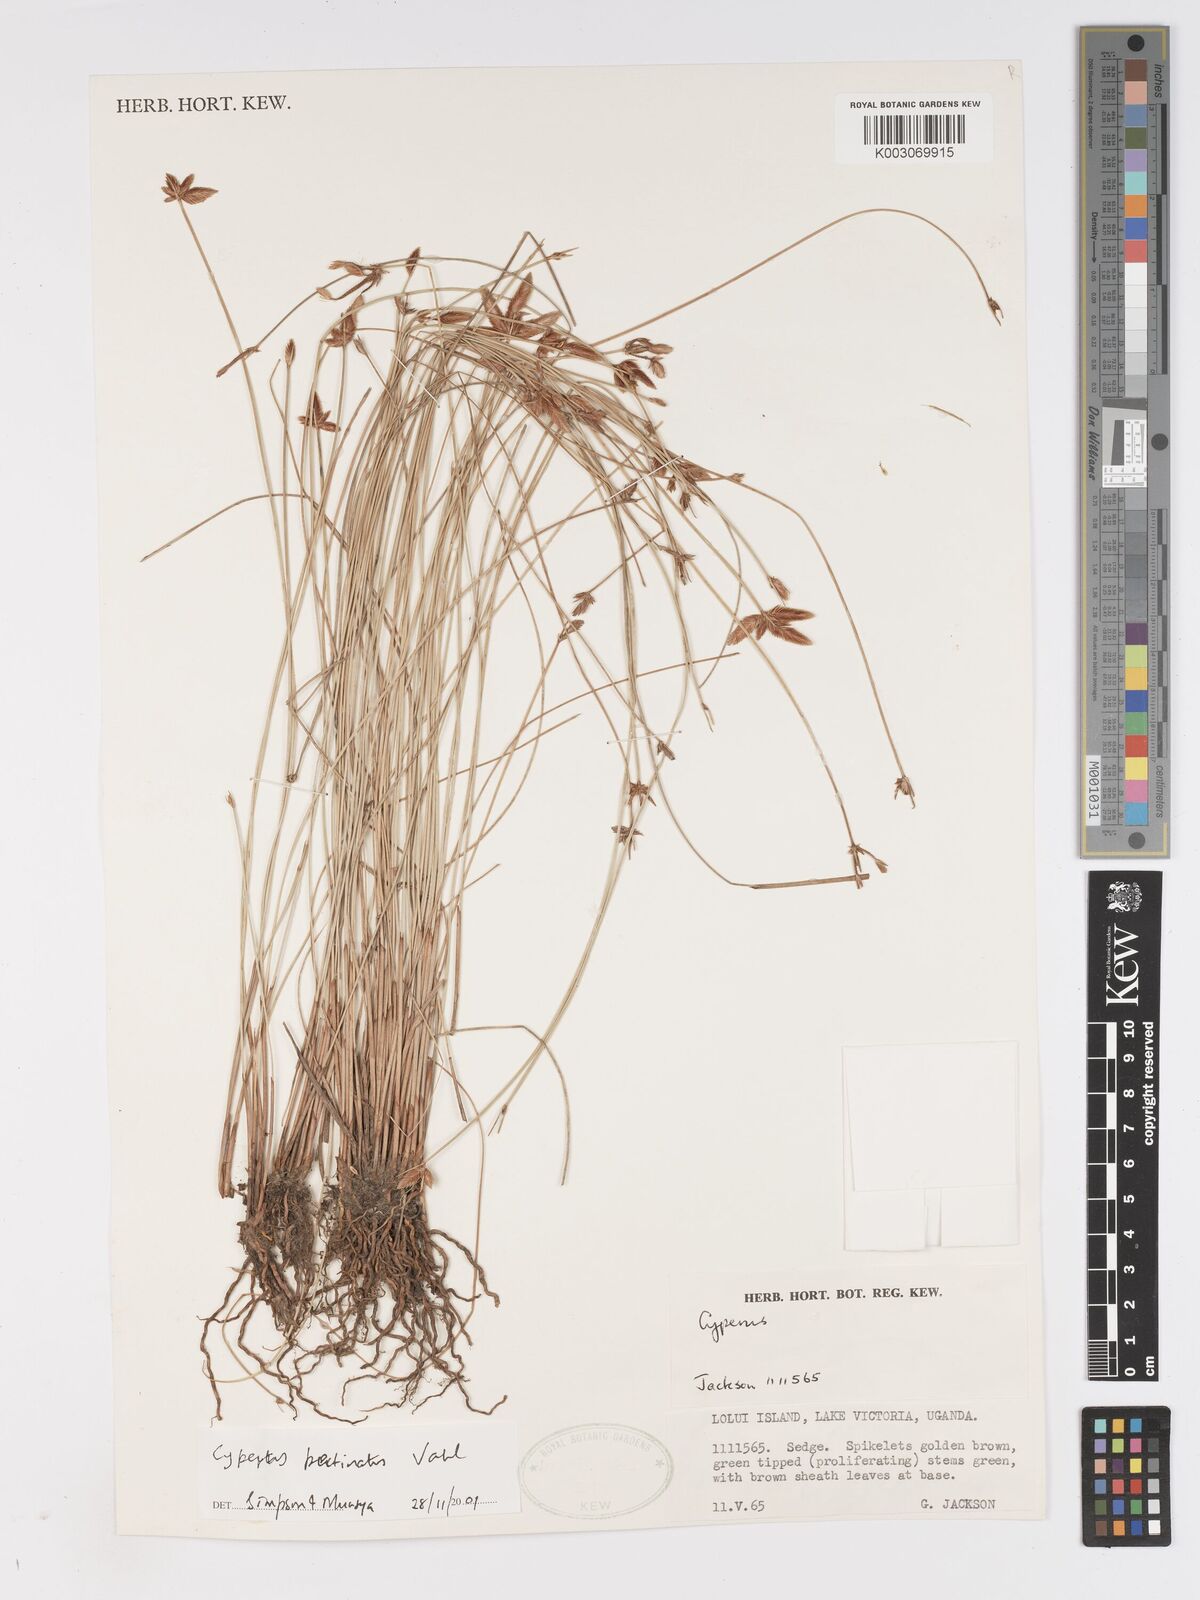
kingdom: Plantae
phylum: Tracheophyta
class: Liliopsida
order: Poales
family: Cyperaceae
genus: Cyperus
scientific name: Cyperus pectinatus
